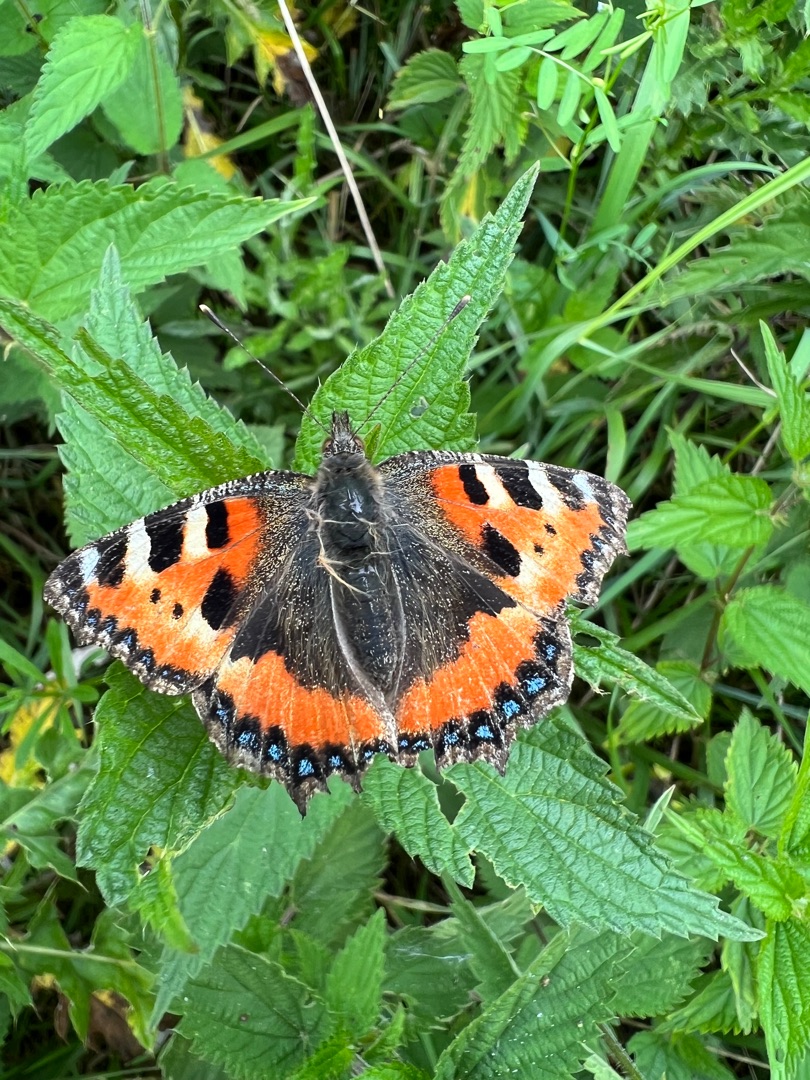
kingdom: Animalia
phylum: Arthropoda
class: Insecta
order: Lepidoptera
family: Nymphalidae
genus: Aglais
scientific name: Aglais urticae
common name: Nældens takvinge
